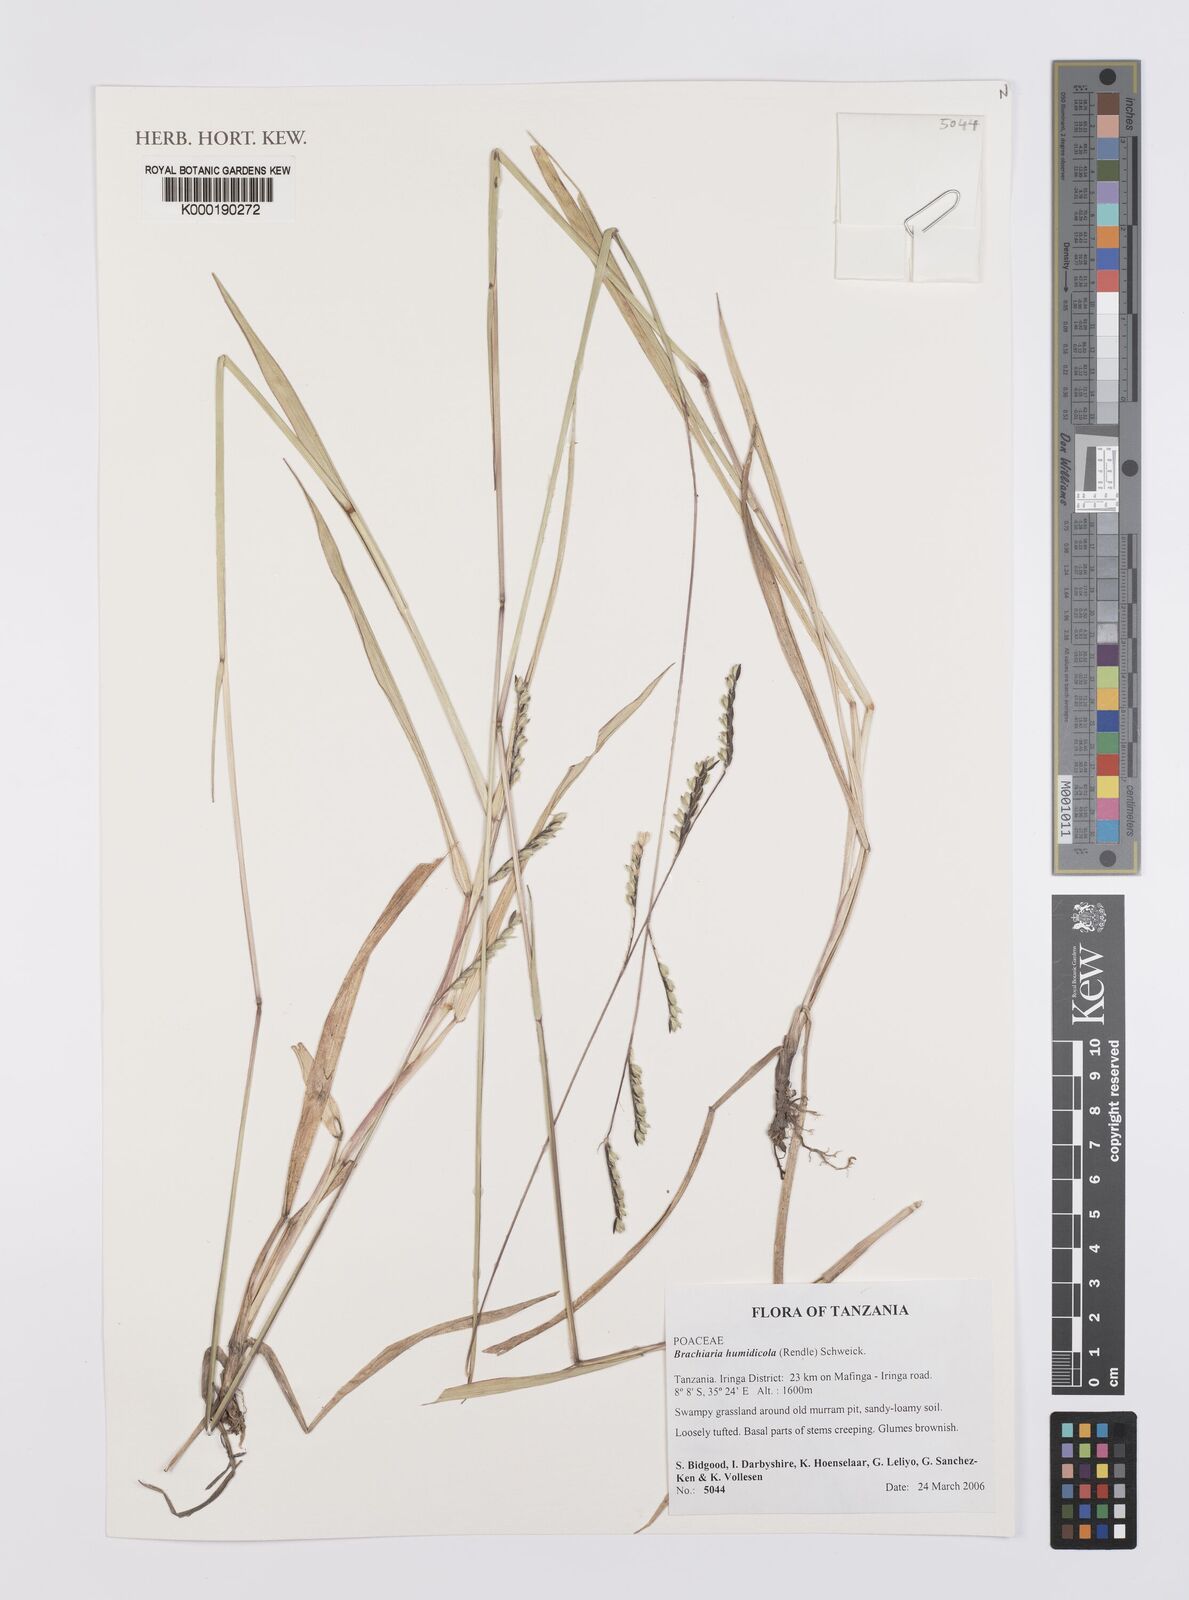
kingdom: Plantae
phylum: Tracheophyta
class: Liliopsida
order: Poales
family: Poaceae
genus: Urochloa
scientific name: Urochloa dictyoneura
